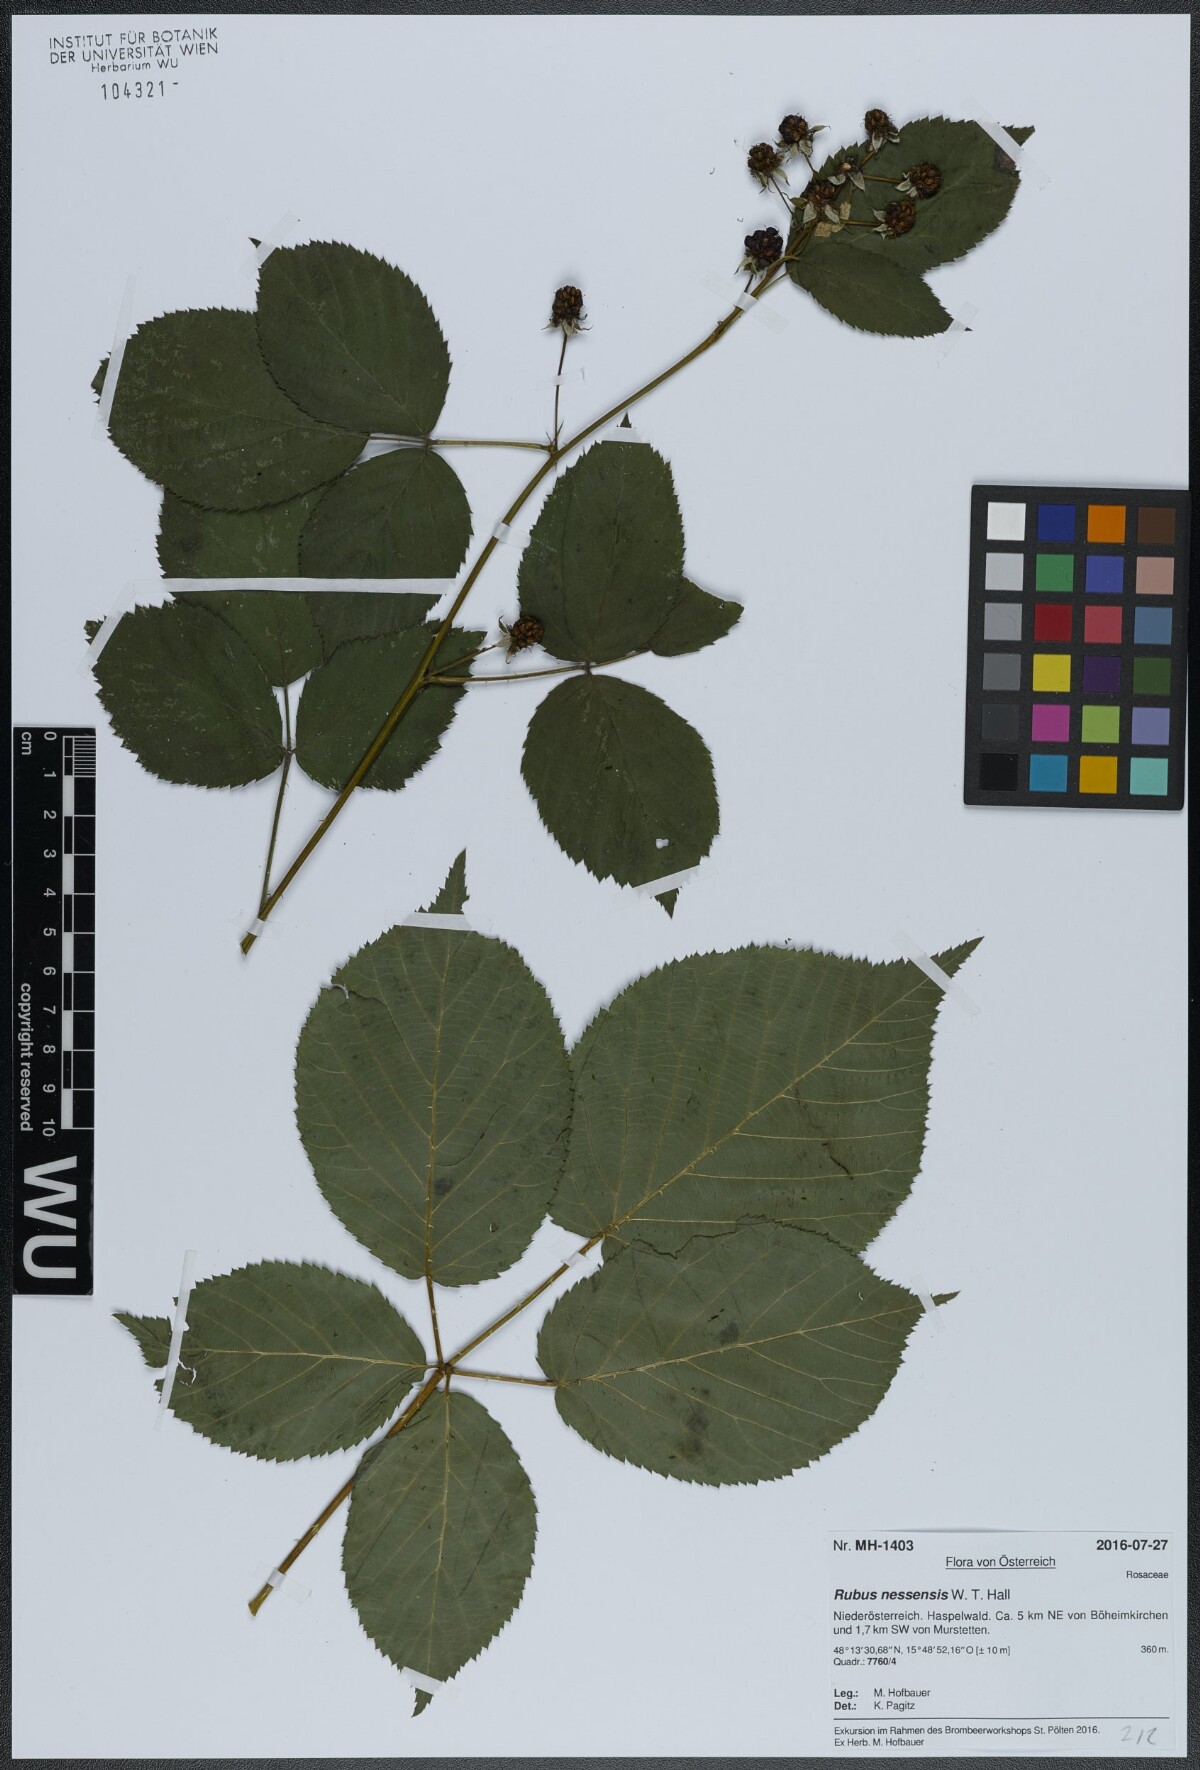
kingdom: Plantae
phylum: Tracheophyta
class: Magnoliopsida
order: Rosales
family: Rosaceae
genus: Rubus
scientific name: Rubus polonicus
